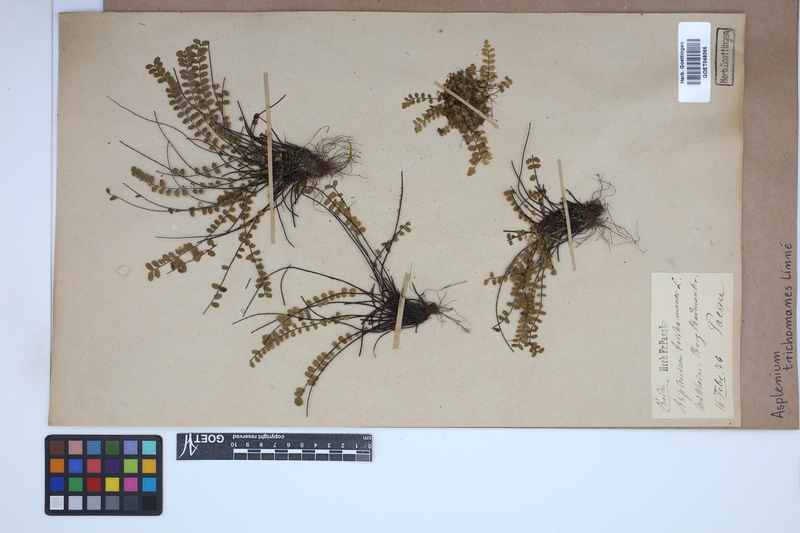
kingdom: Plantae
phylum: Tracheophyta
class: Polypodiopsida
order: Polypodiales
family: Aspleniaceae
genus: Asplenium
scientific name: Asplenium trichomanes
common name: Maidenhair spleenwort
